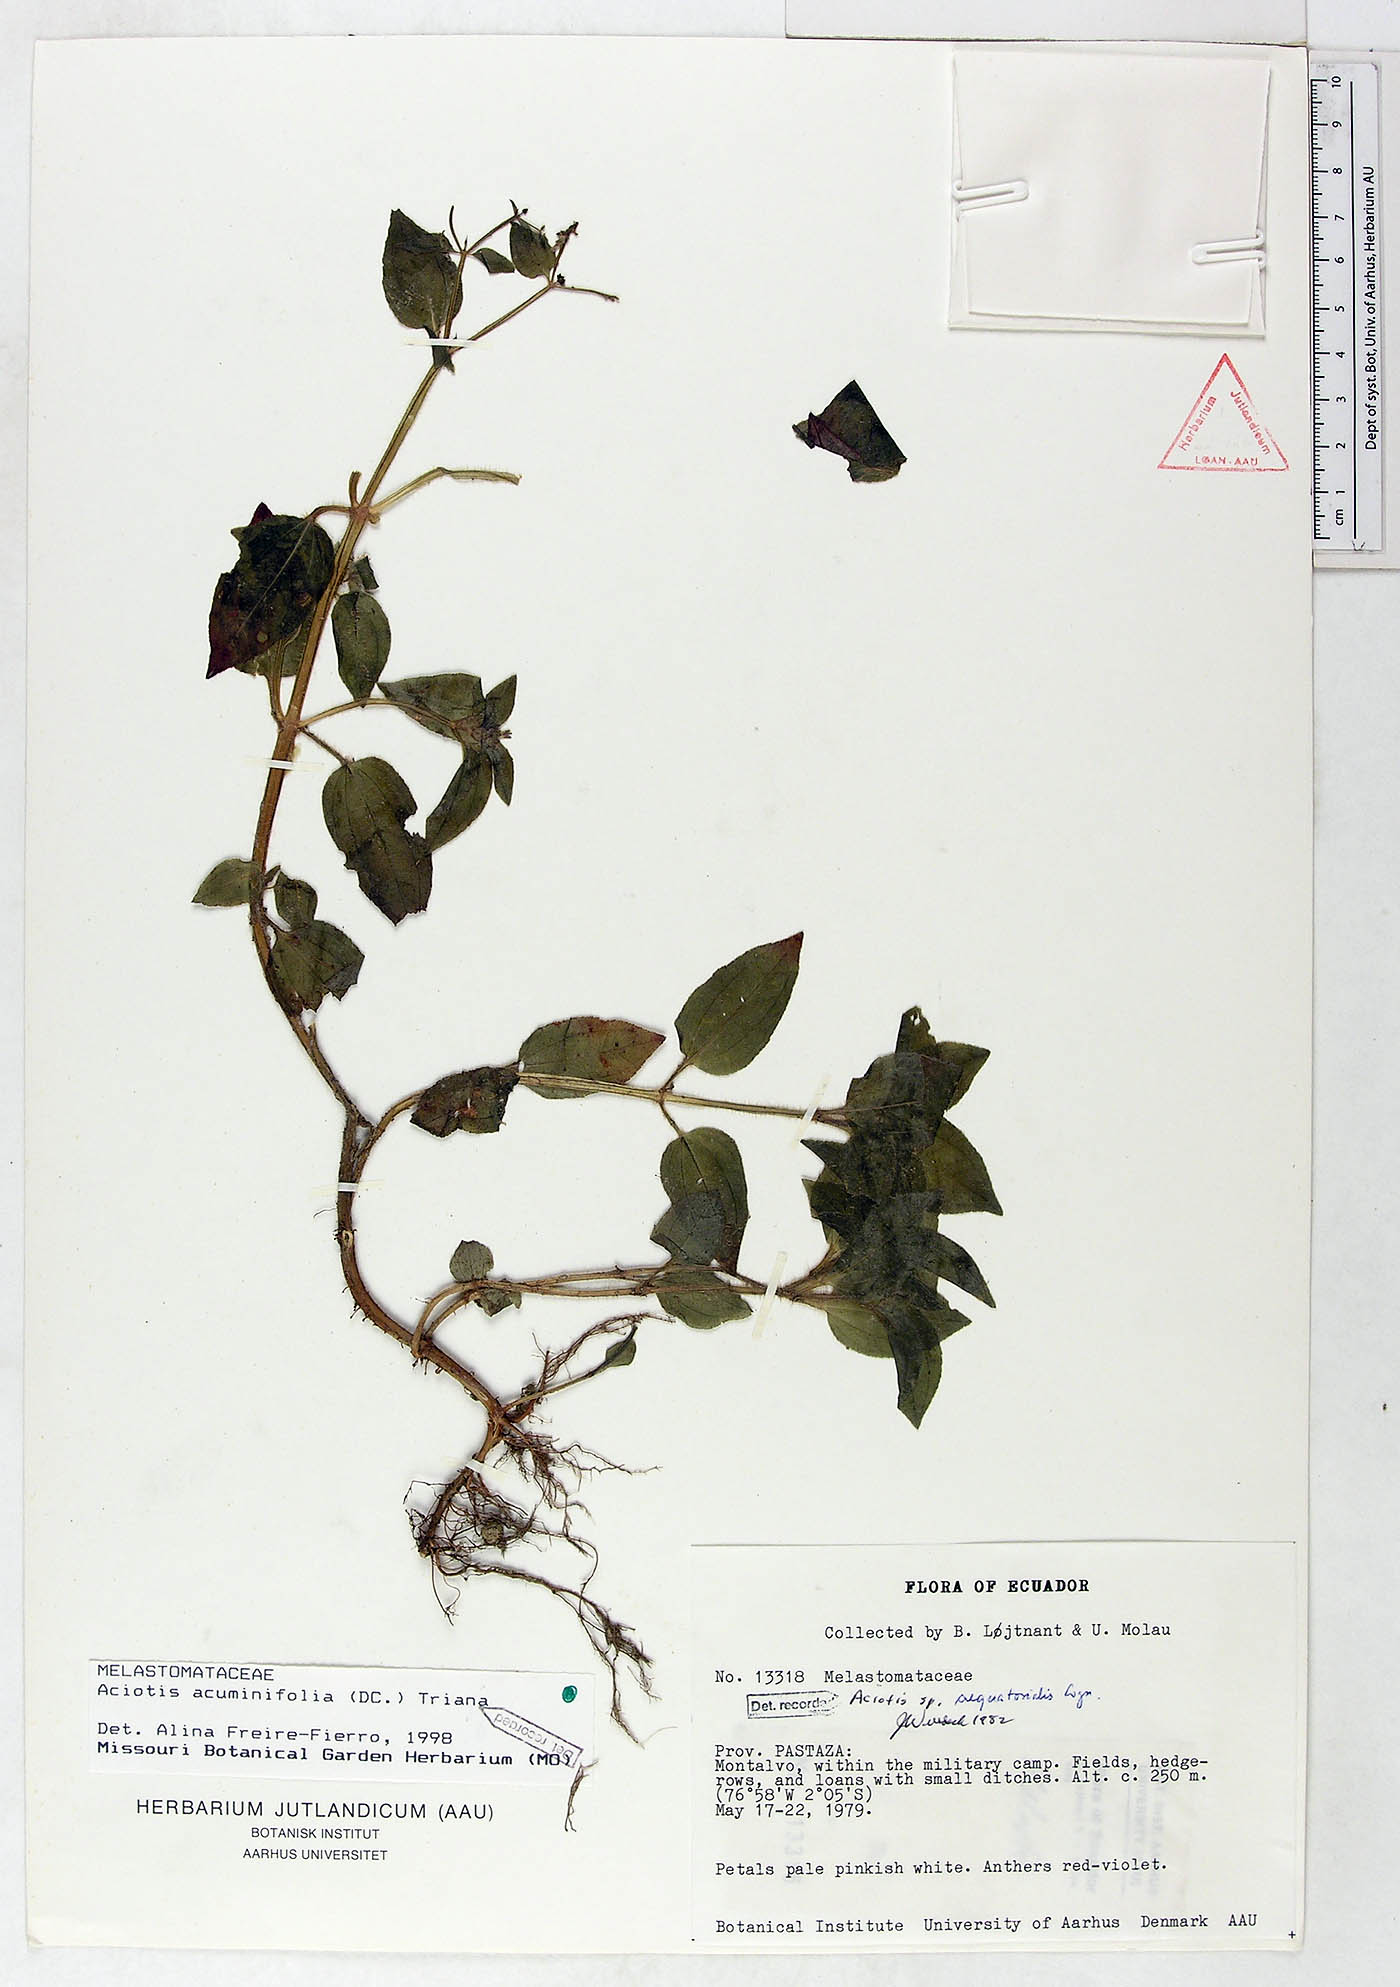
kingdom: Plantae
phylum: Tracheophyta
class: Magnoliopsida
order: Myrtales
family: Melastomataceae
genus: Aciotis
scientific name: Aciotis acuminifolia
